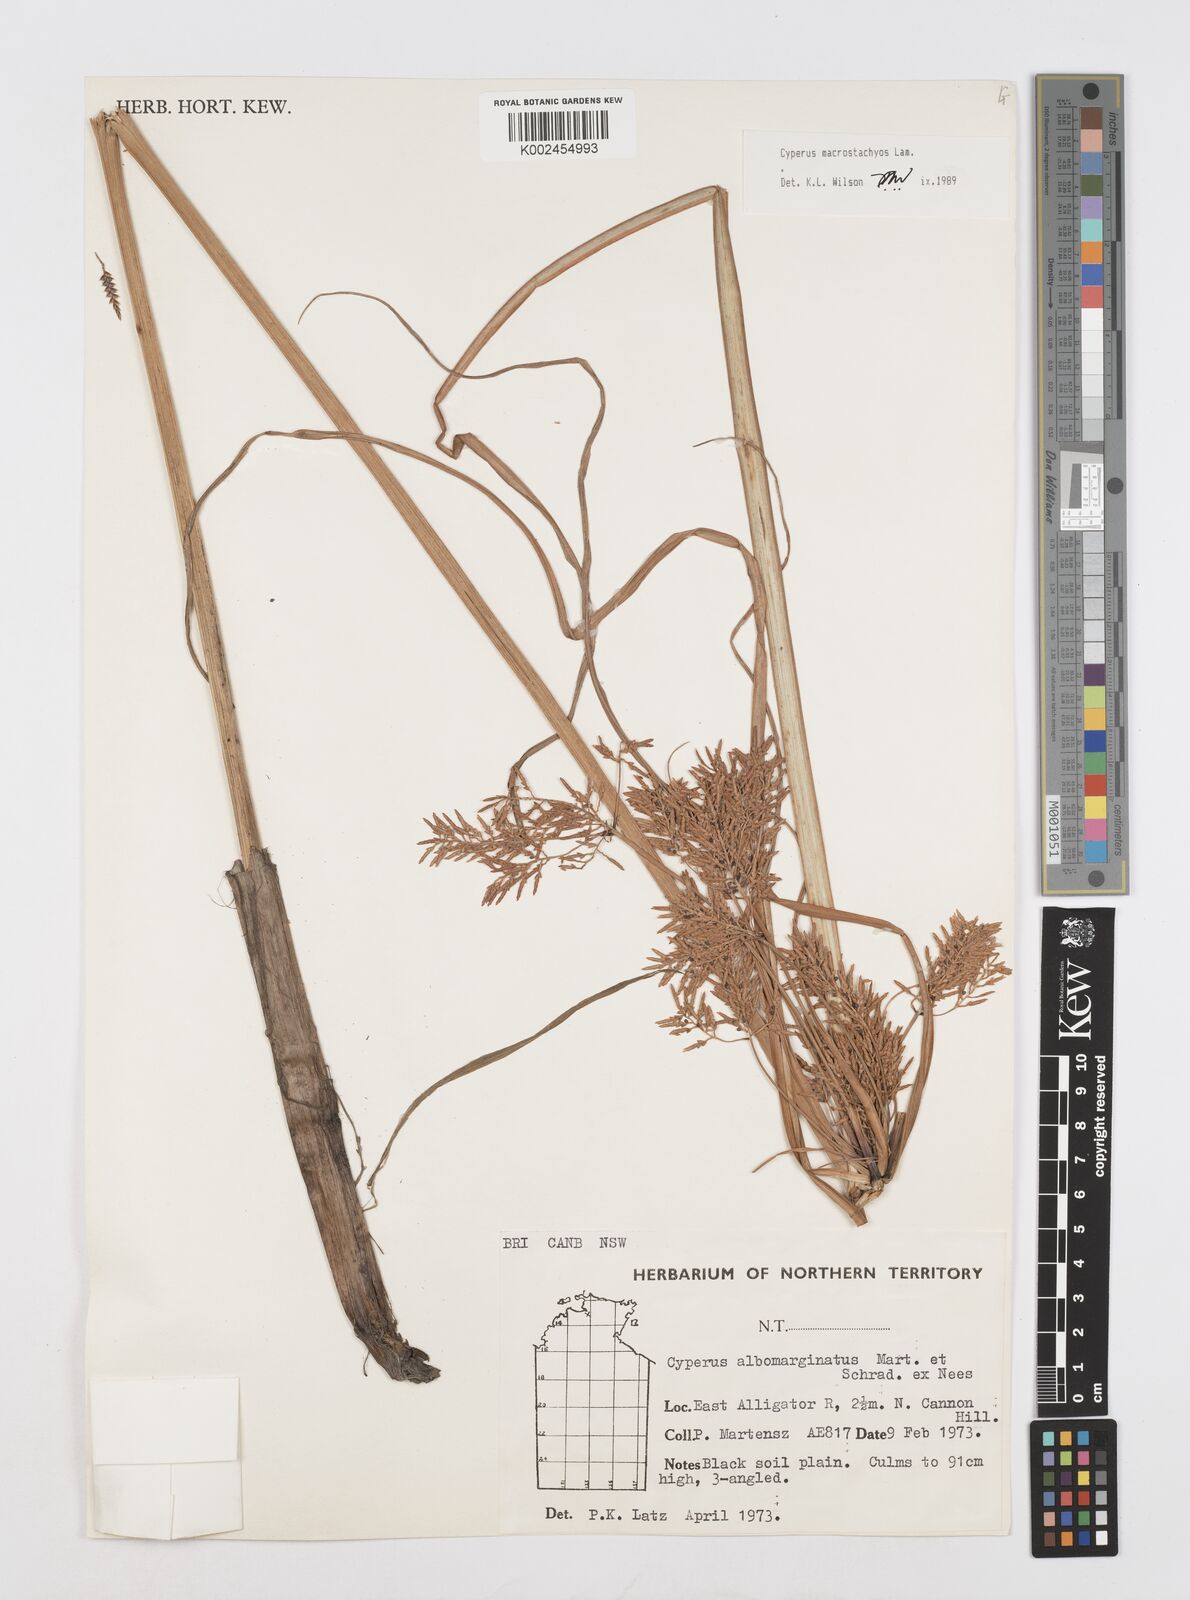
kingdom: Plantae
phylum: Tracheophyta
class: Liliopsida
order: Poales
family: Cyperaceae
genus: Cyperus
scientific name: Cyperus macrostachyos
